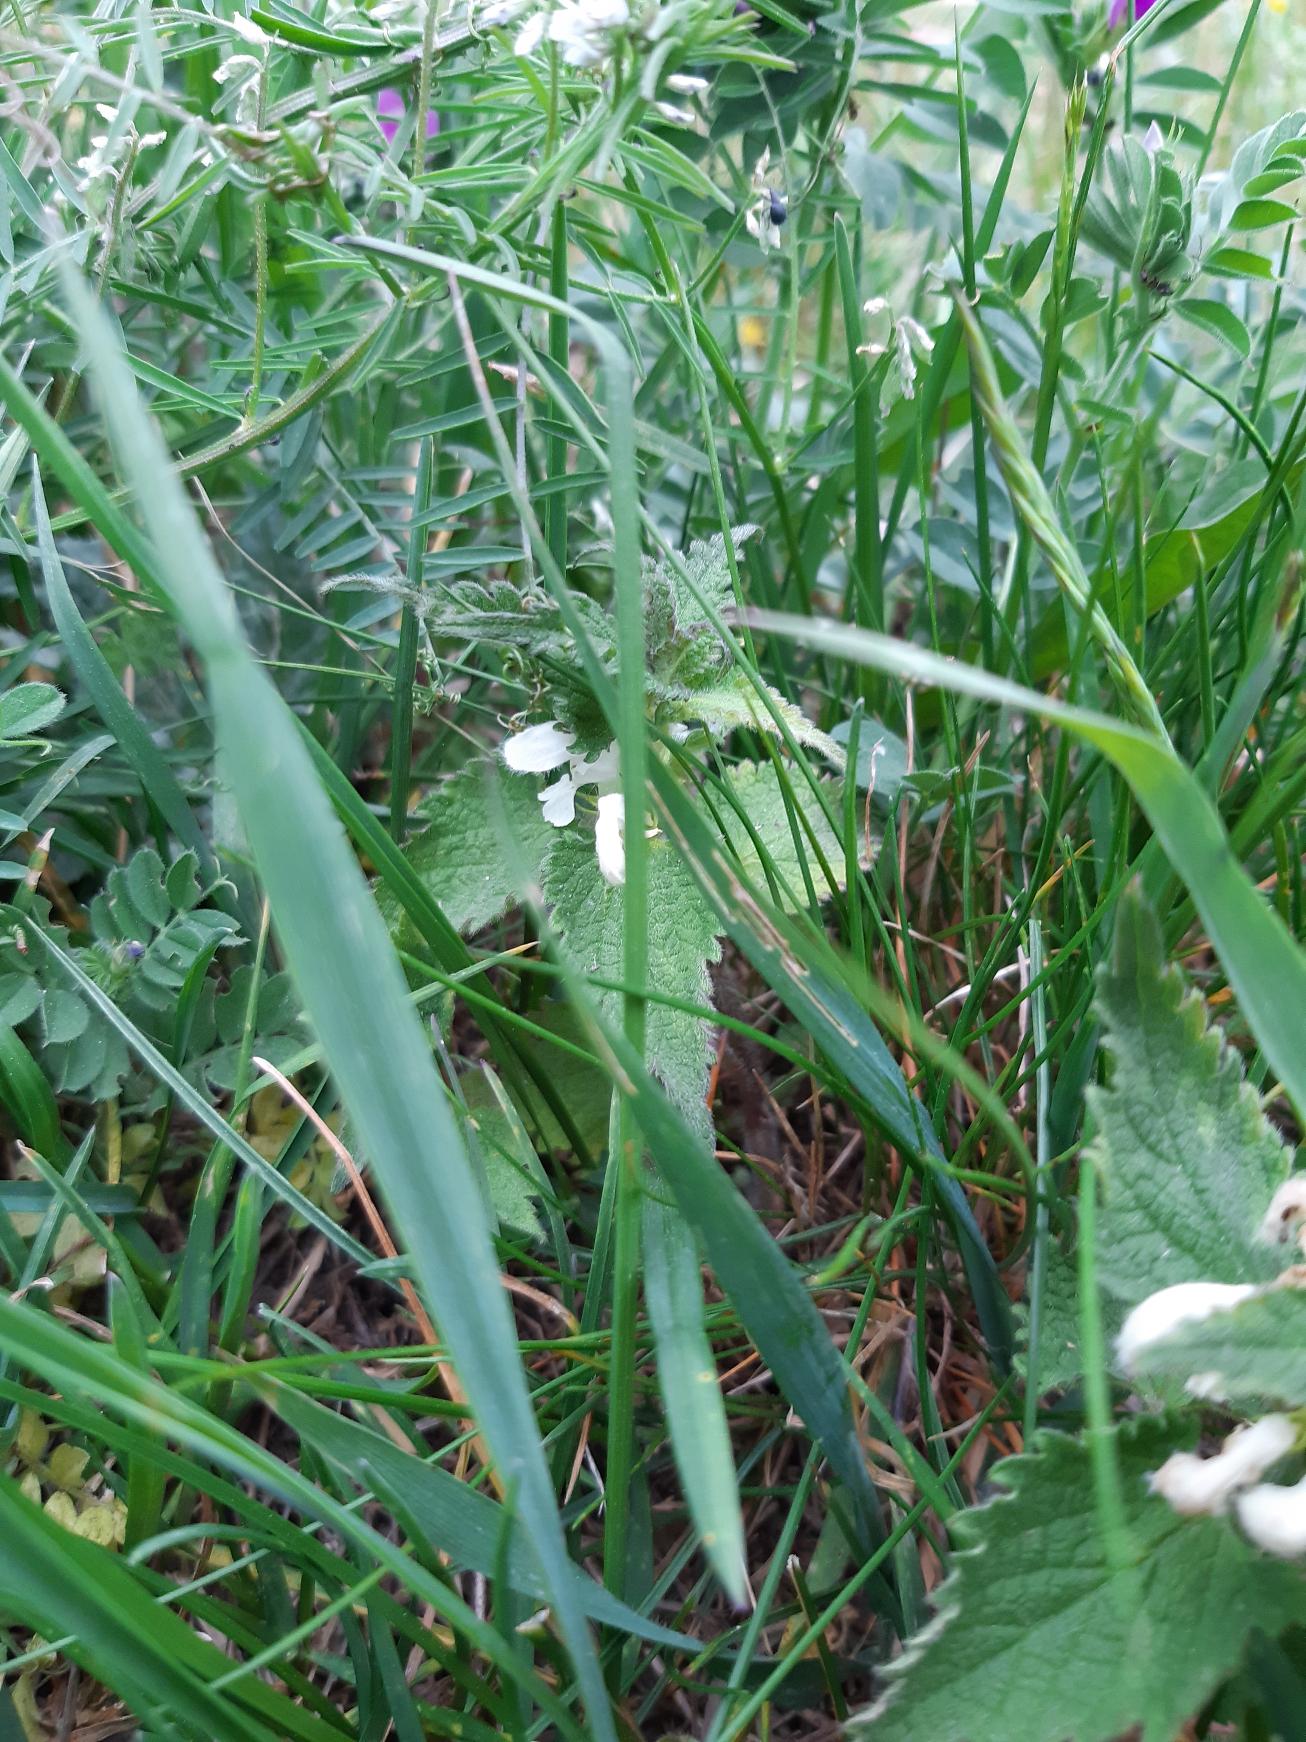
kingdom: Plantae
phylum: Tracheophyta
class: Magnoliopsida
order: Lamiales
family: Lamiaceae
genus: Lamium
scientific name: Lamium album
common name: Døvnælde
